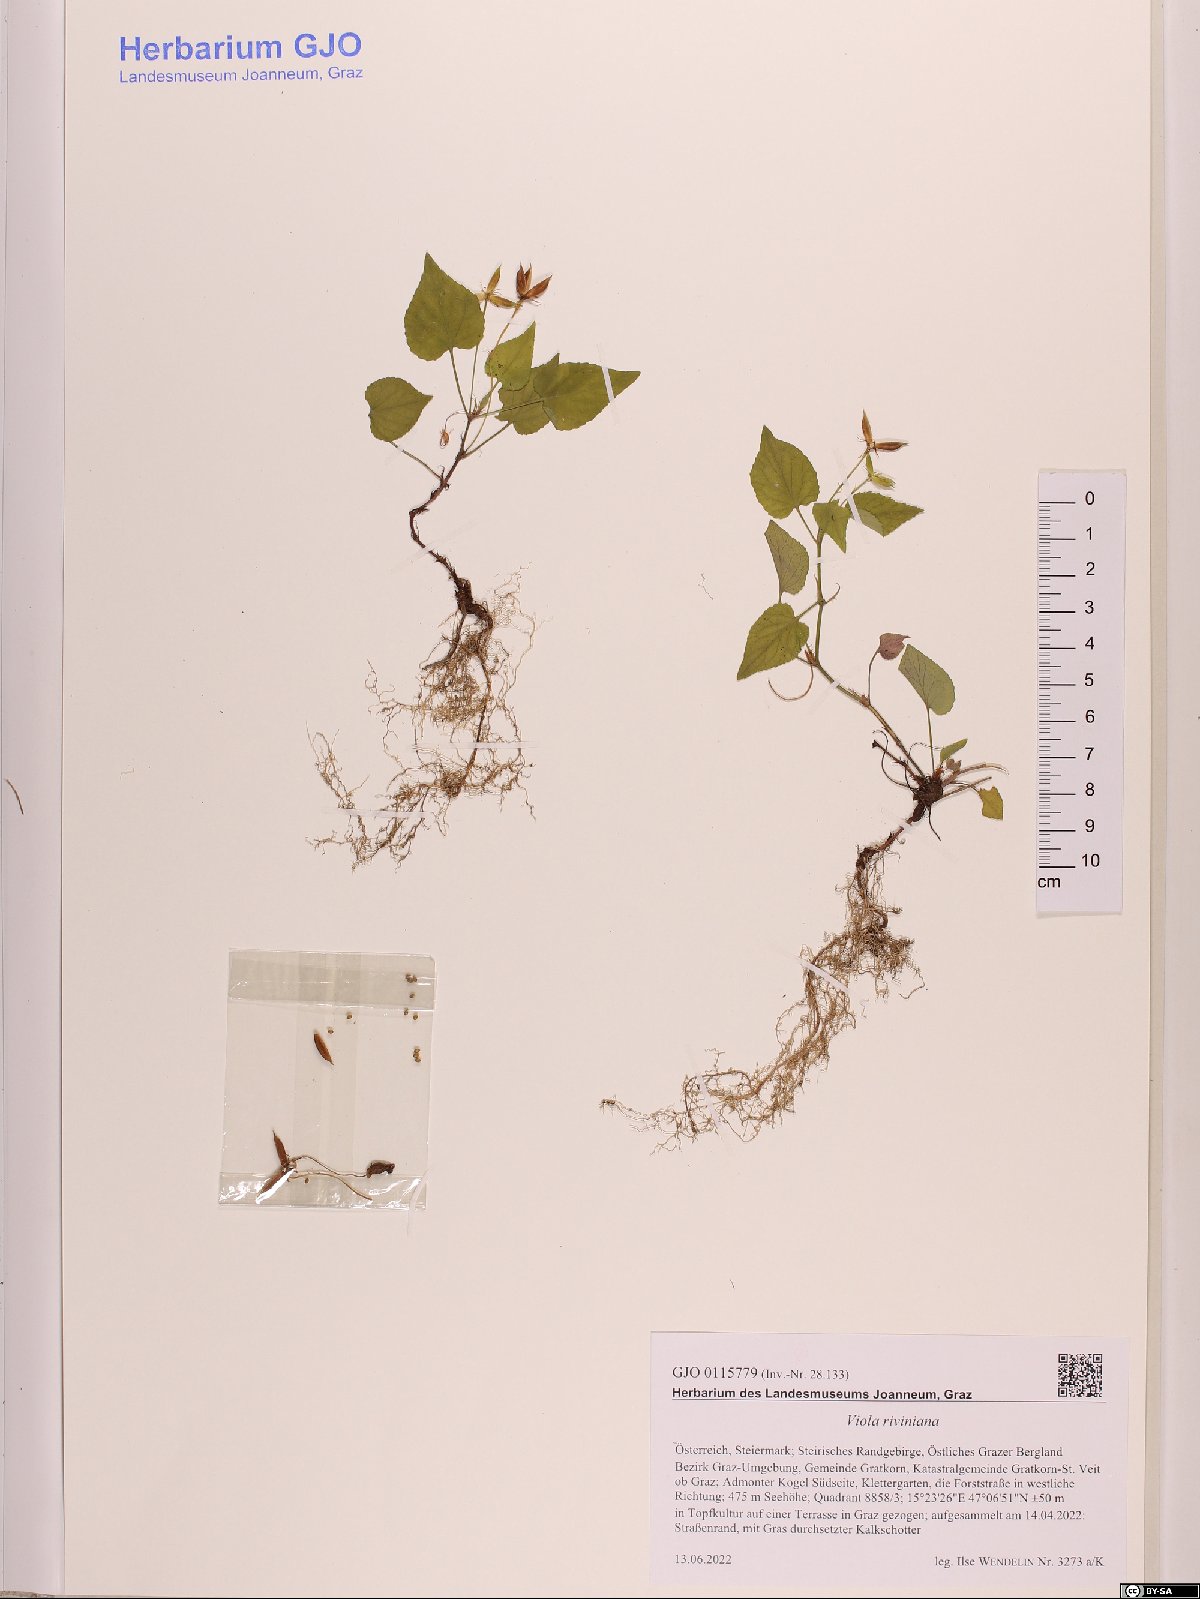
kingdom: Plantae
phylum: Tracheophyta
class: Magnoliopsida
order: Malpighiales
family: Violaceae
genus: Viola
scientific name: Viola riviniana
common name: Common dog-violet
